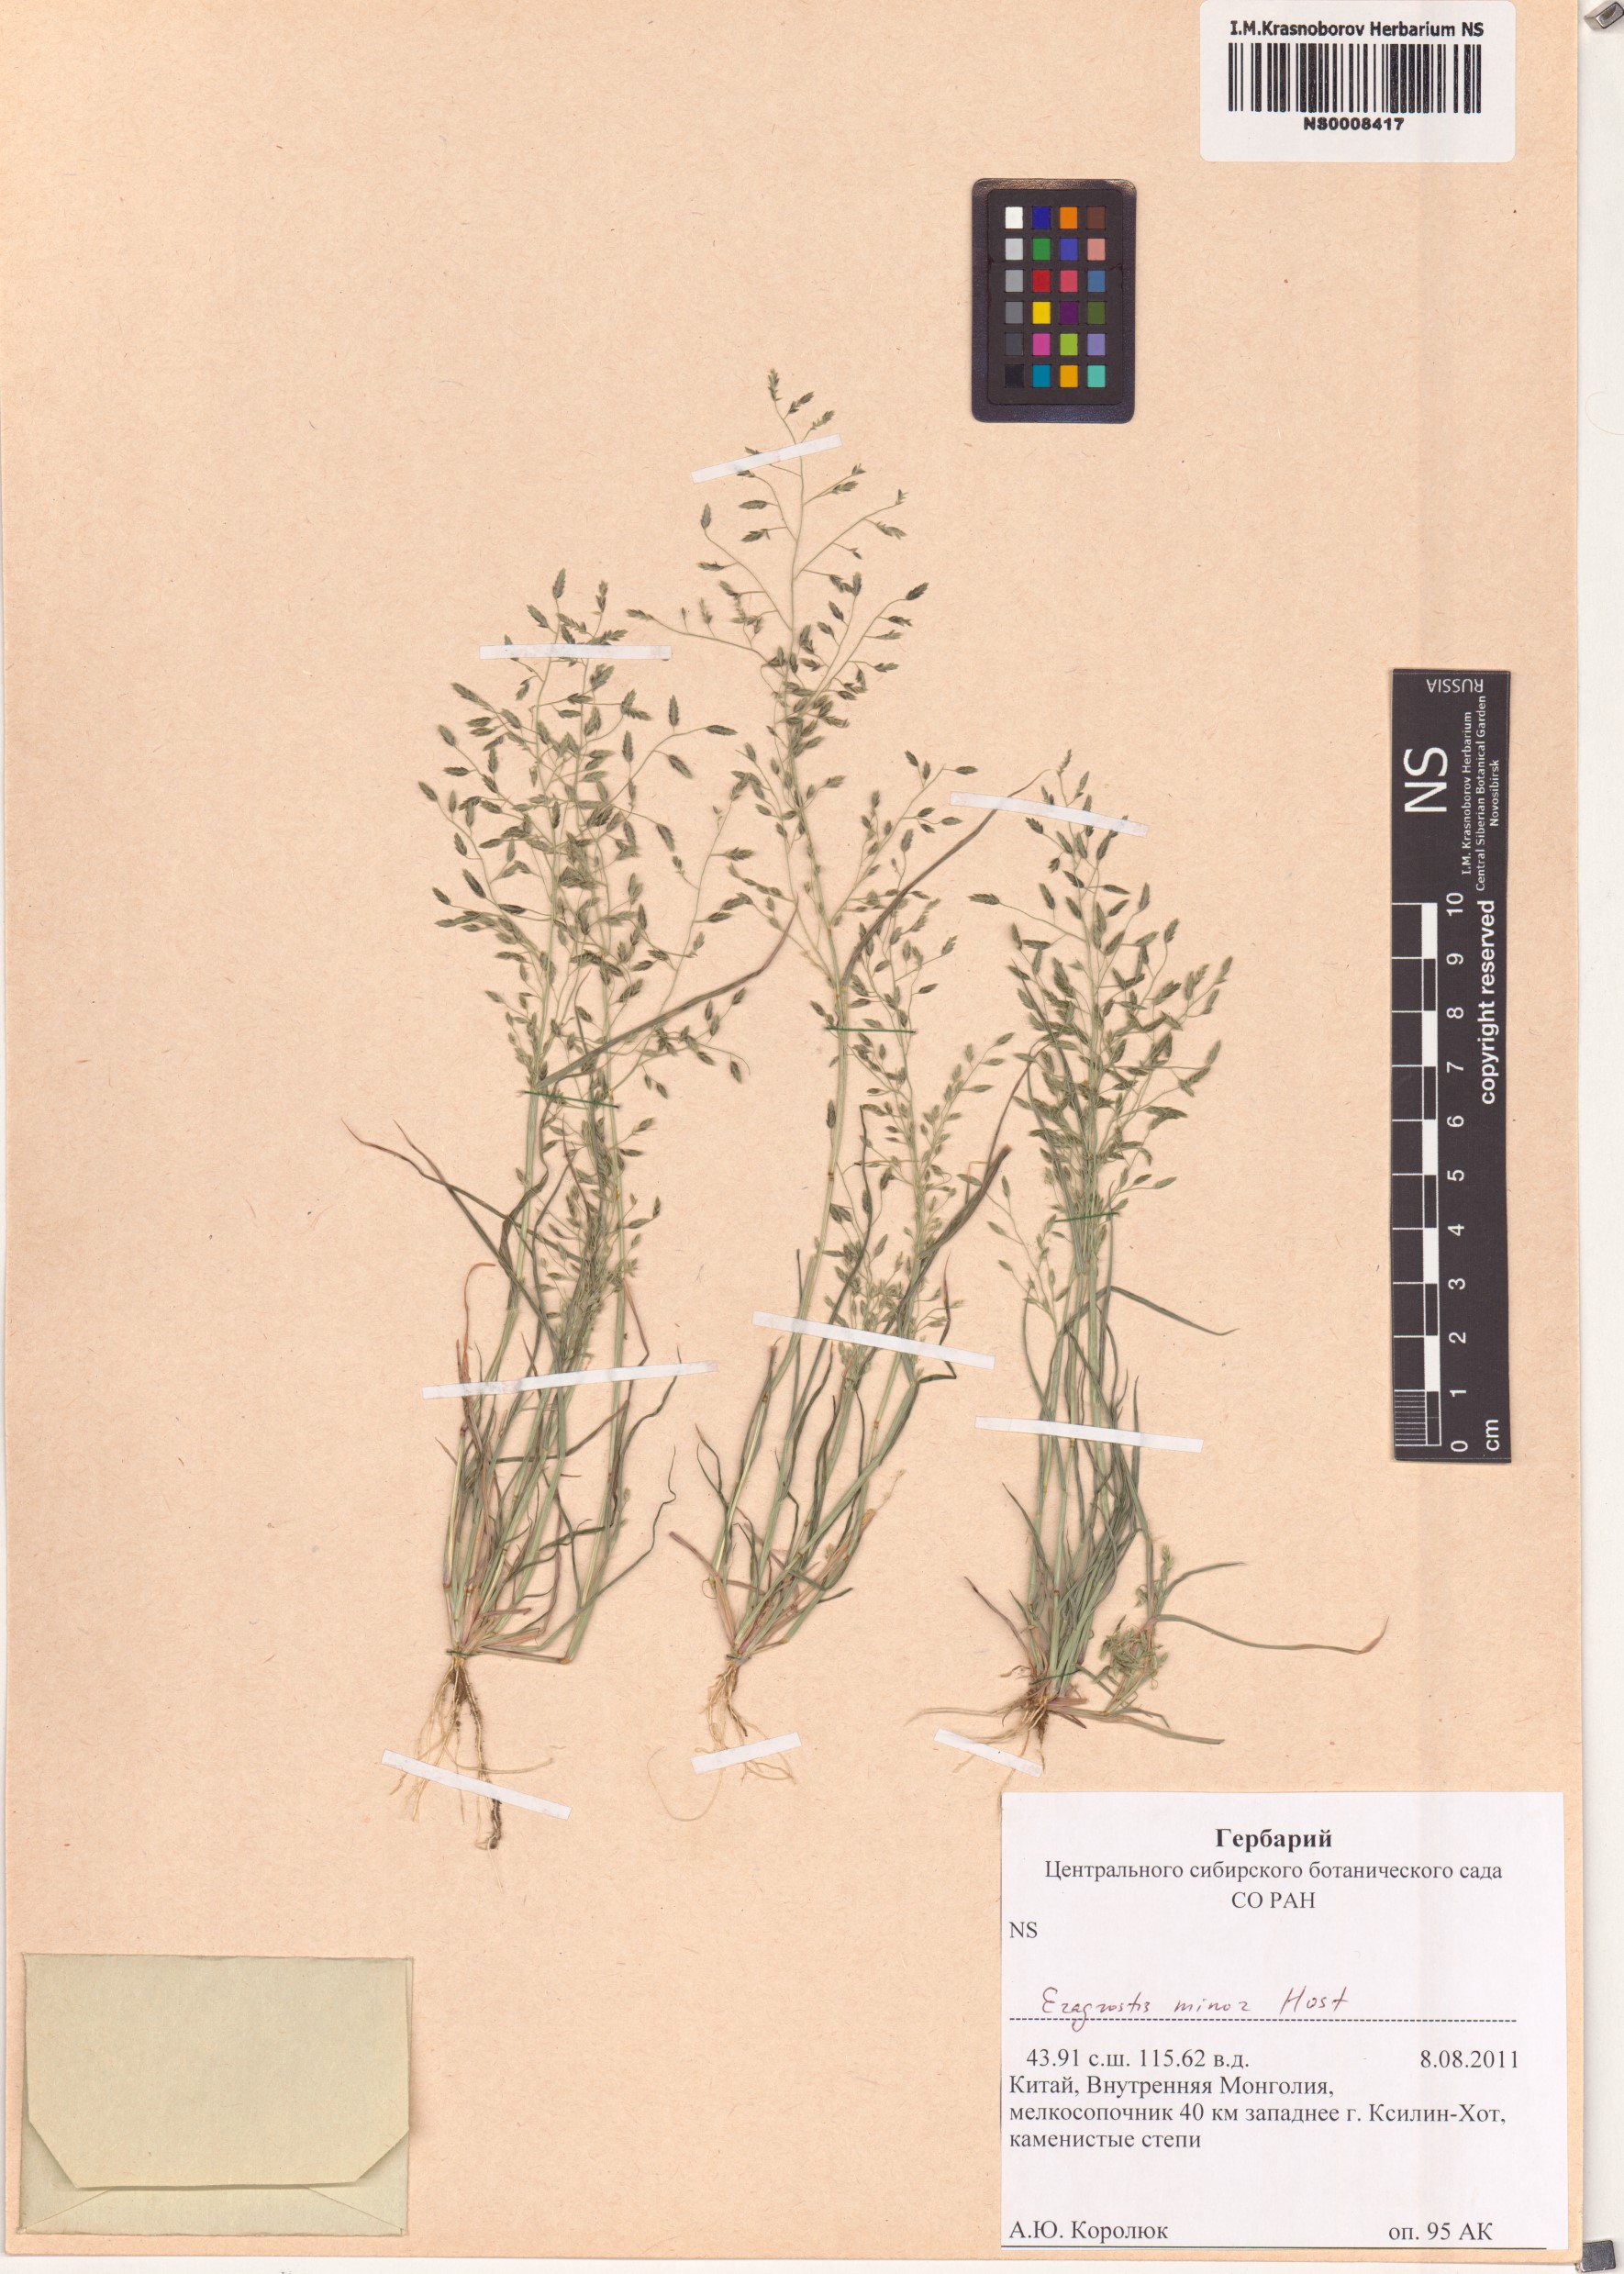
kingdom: Plantae
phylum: Tracheophyta
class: Liliopsida
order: Poales
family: Poaceae
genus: Eragrostis
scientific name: Eragrostis minor
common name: Small love-grass
